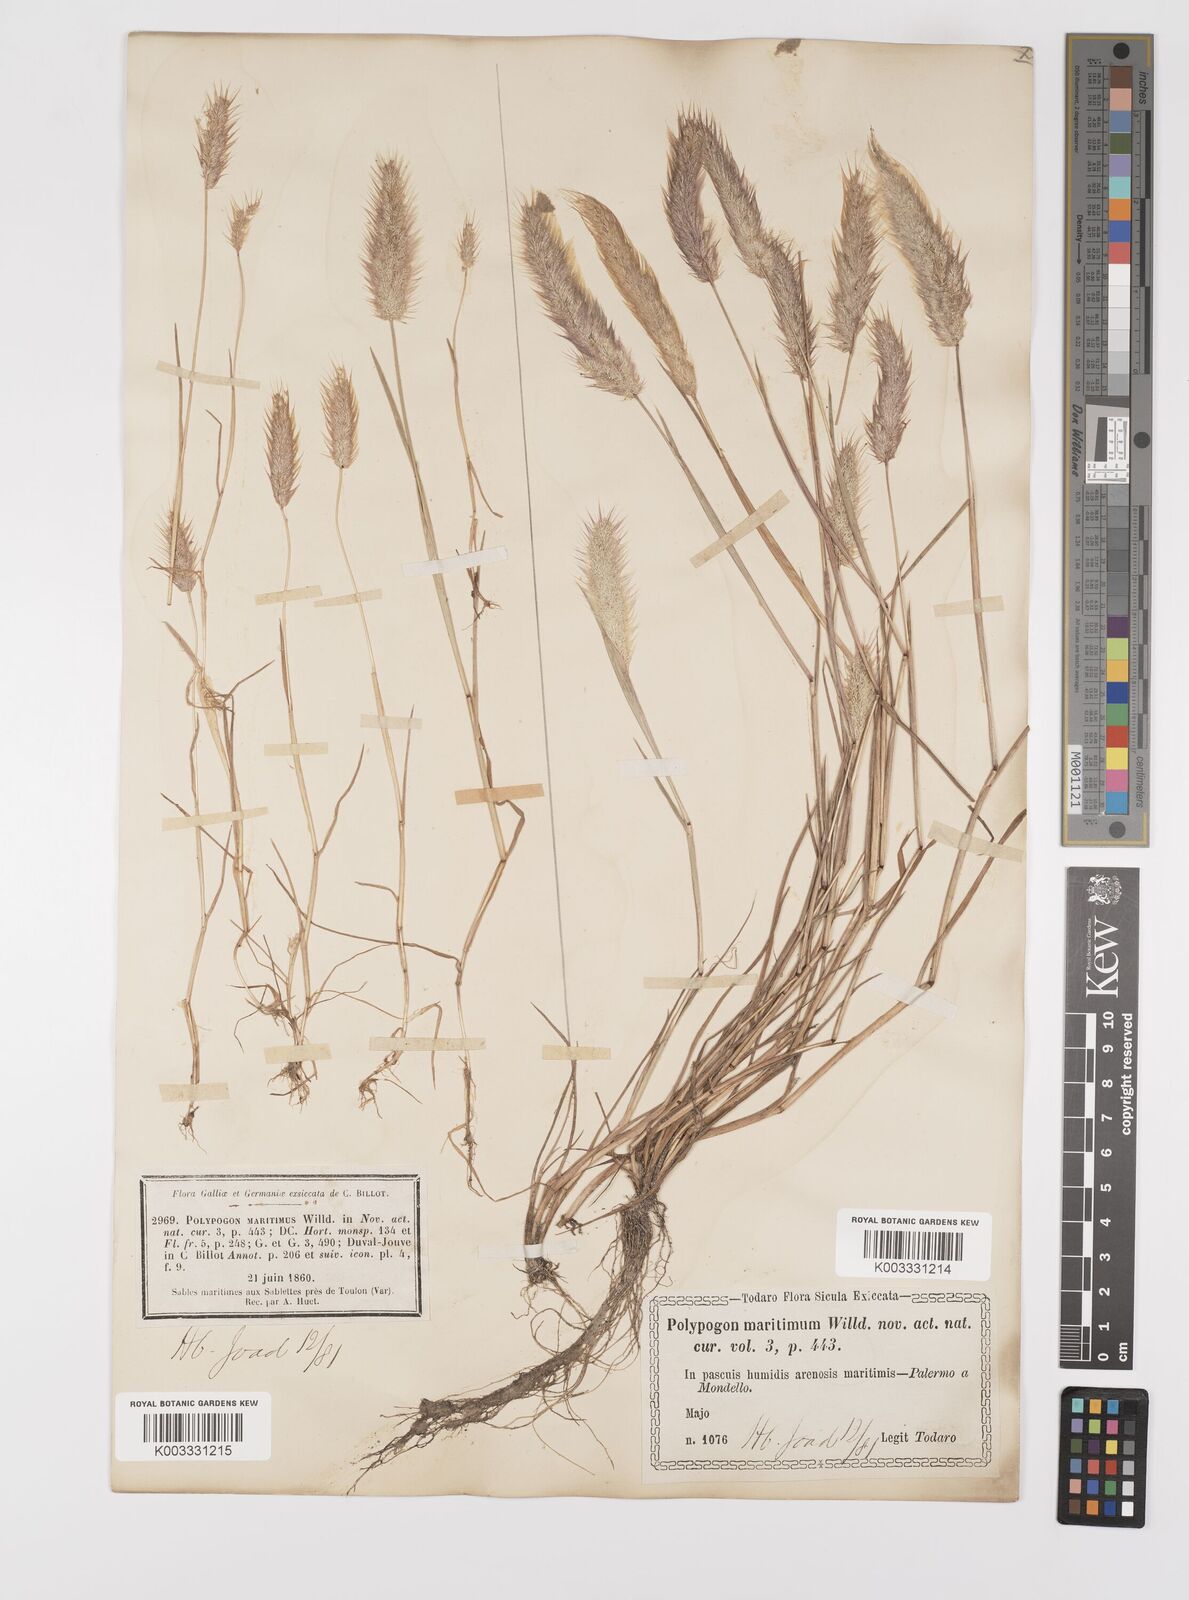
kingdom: Plantae
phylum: Tracheophyta
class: Liliopsida
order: Poales
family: Poaceae
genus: Polypogon
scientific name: Polypogon maritimus
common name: Mediterranean rabbitsfoot grass
